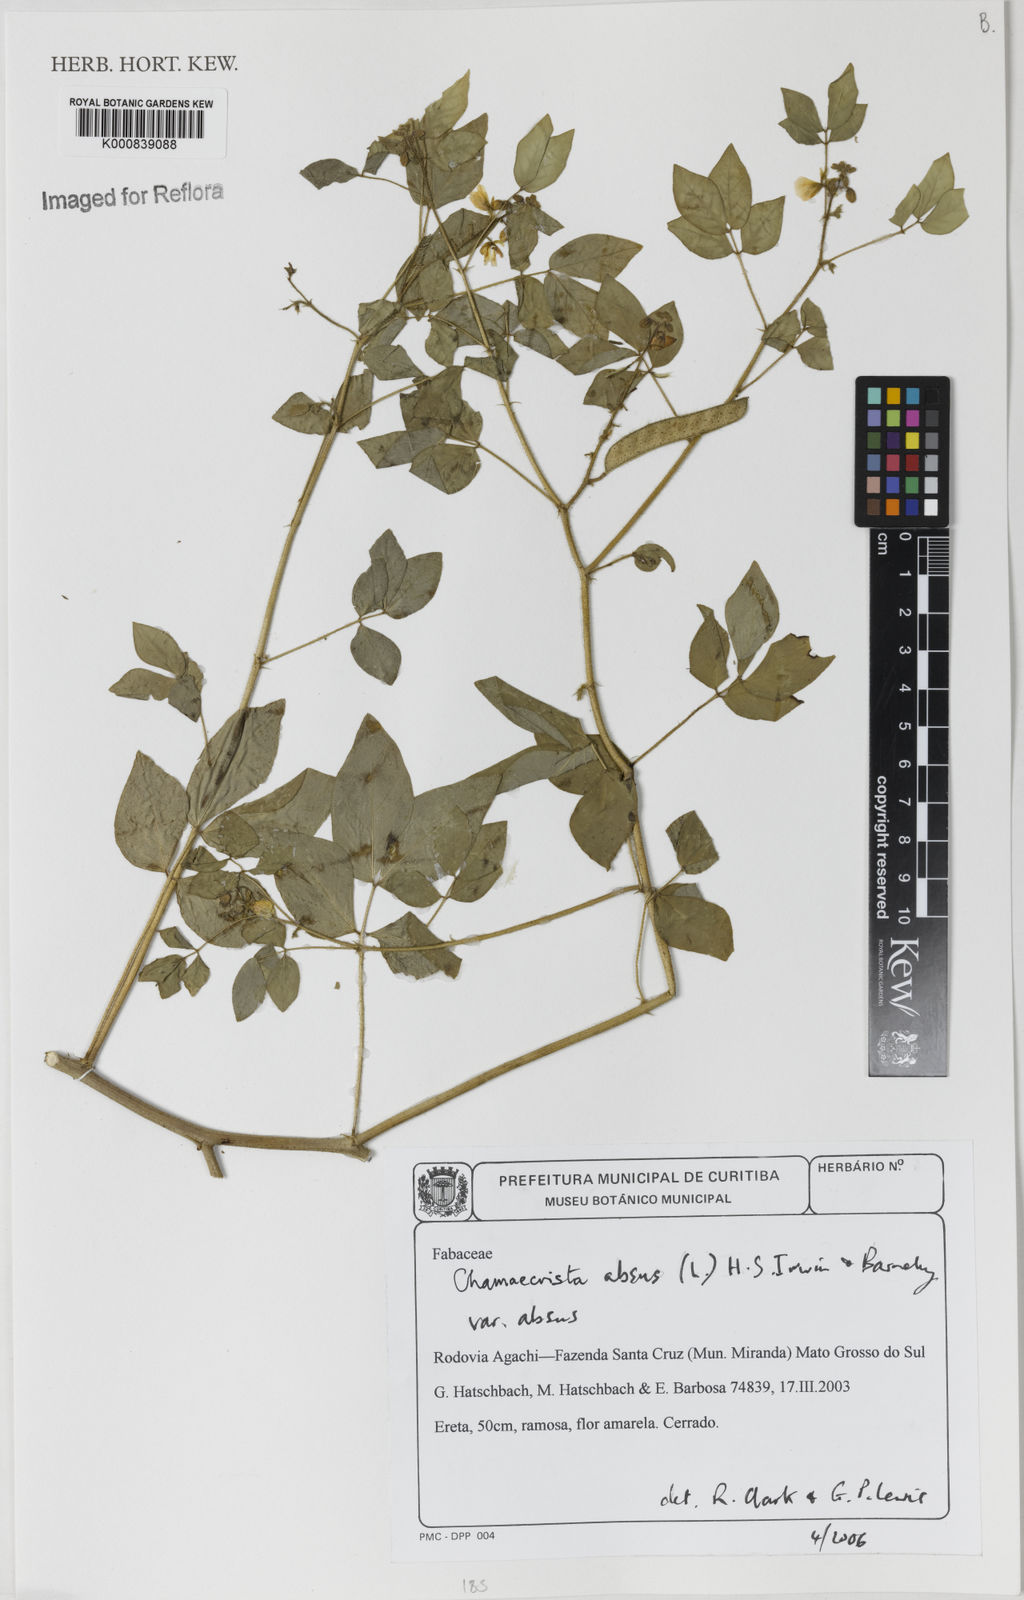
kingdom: Plantae
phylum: Tracheophyta
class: Magnoliopsida
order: Fabales
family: Fabaceae
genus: Chamaecrista
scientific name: Chamaecrista absus
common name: Tropical sensitive pea
